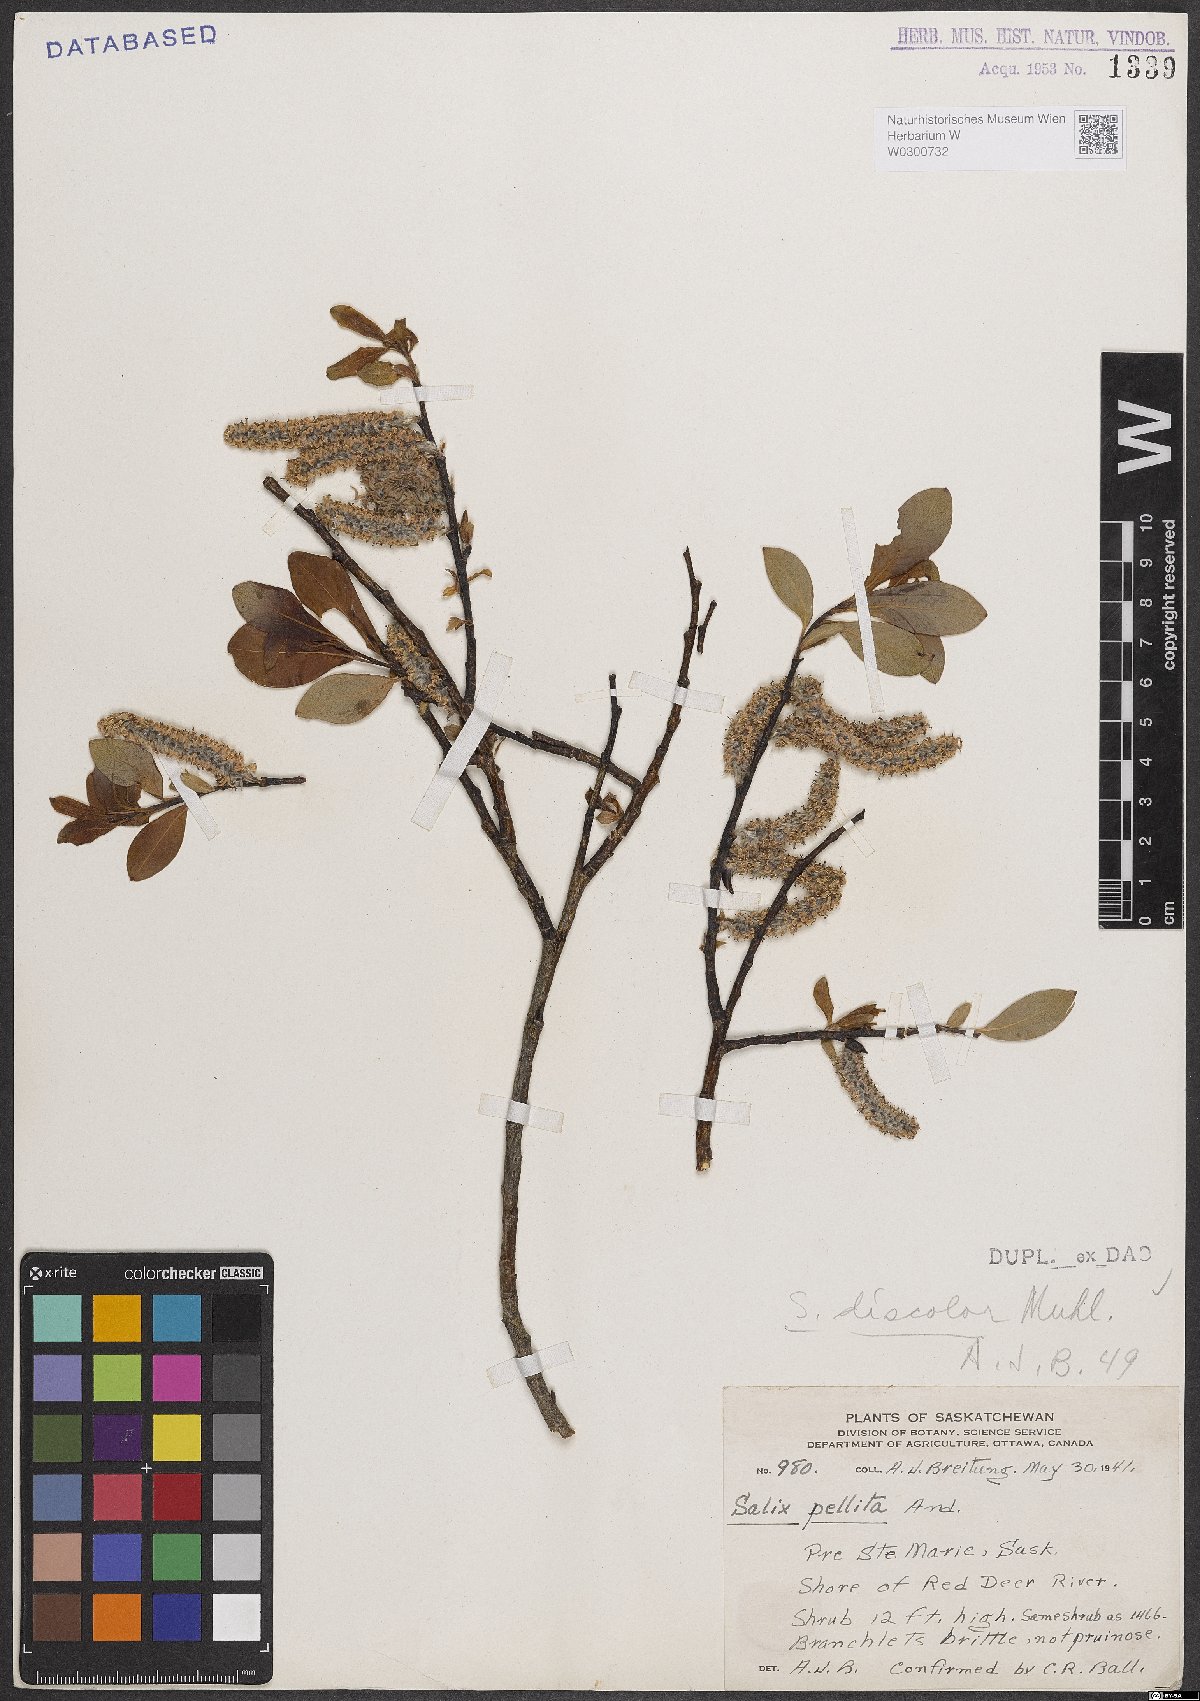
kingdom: Plantae
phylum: Tracheophyta
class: Magnoliopsida
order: Malpighiales
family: Salicaceae
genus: Salix
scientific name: Salix discolor
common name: Glaucous willow
